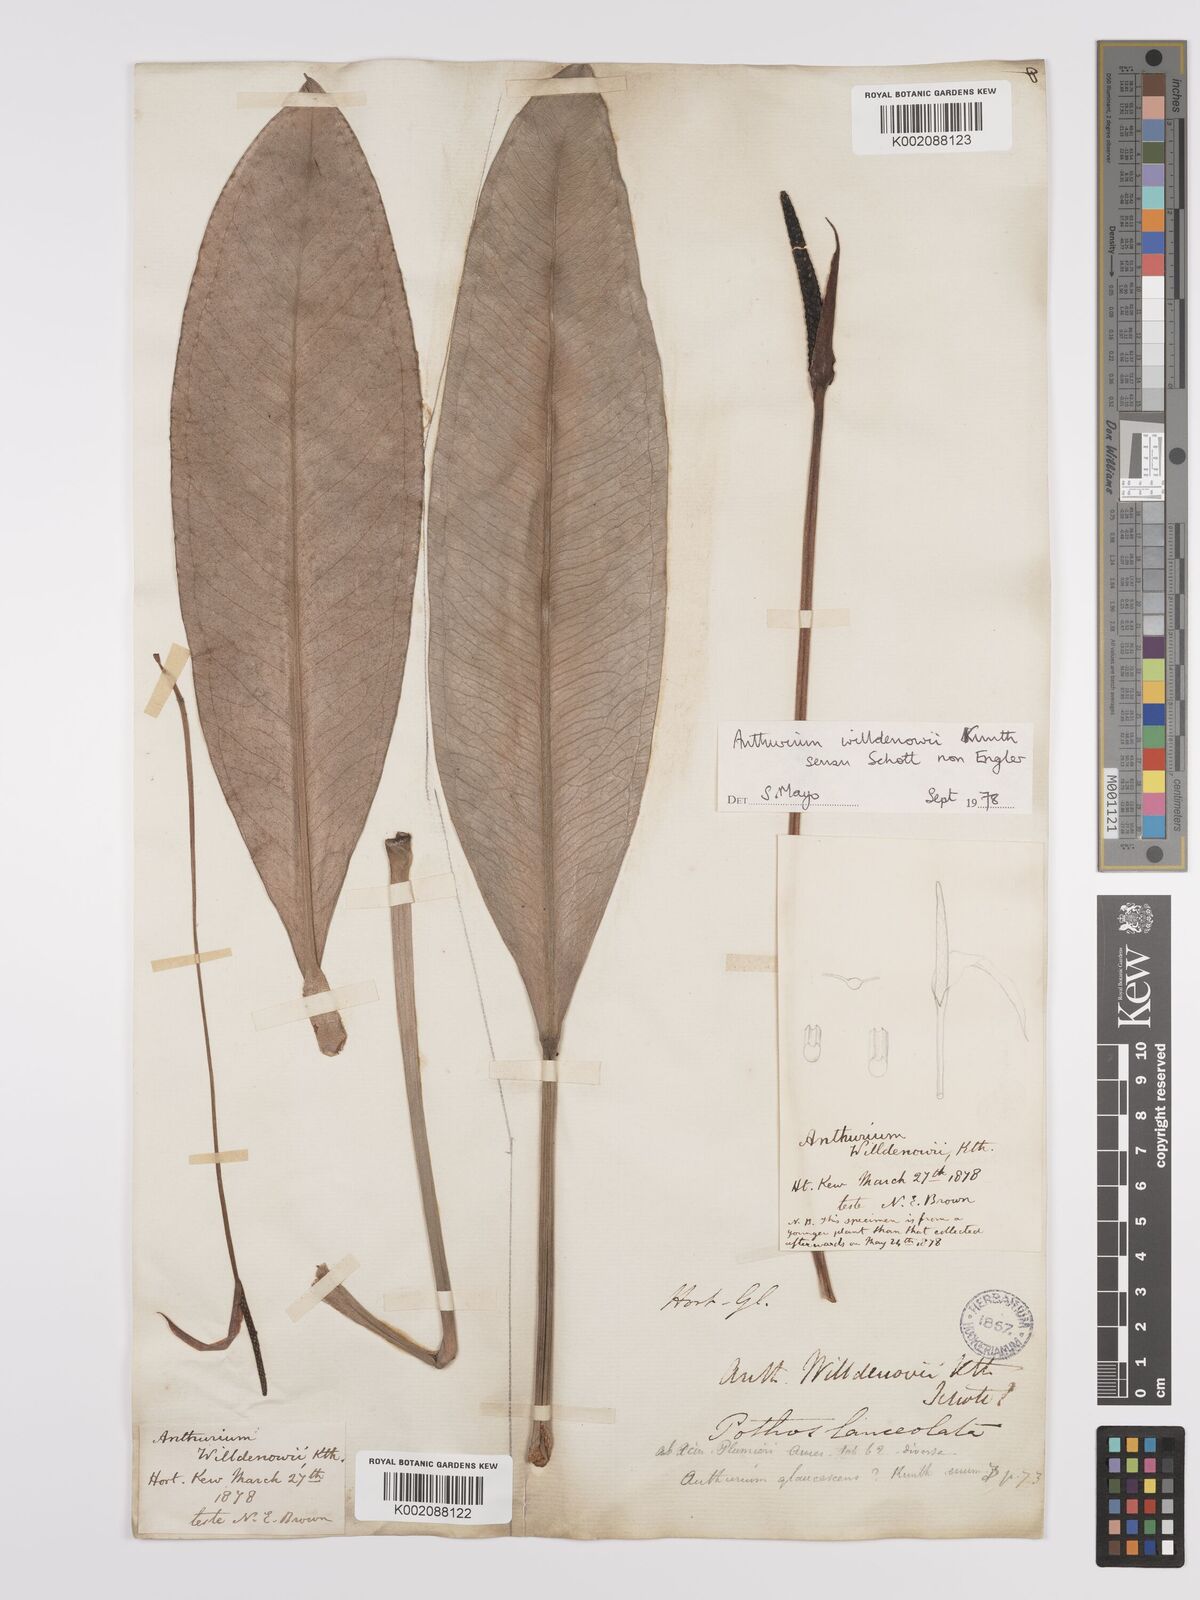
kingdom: Plantae
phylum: Tracheophyta
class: Liliopsida
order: Alismatales
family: Araceae
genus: Anthurium
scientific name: Anthurium willdenowii
